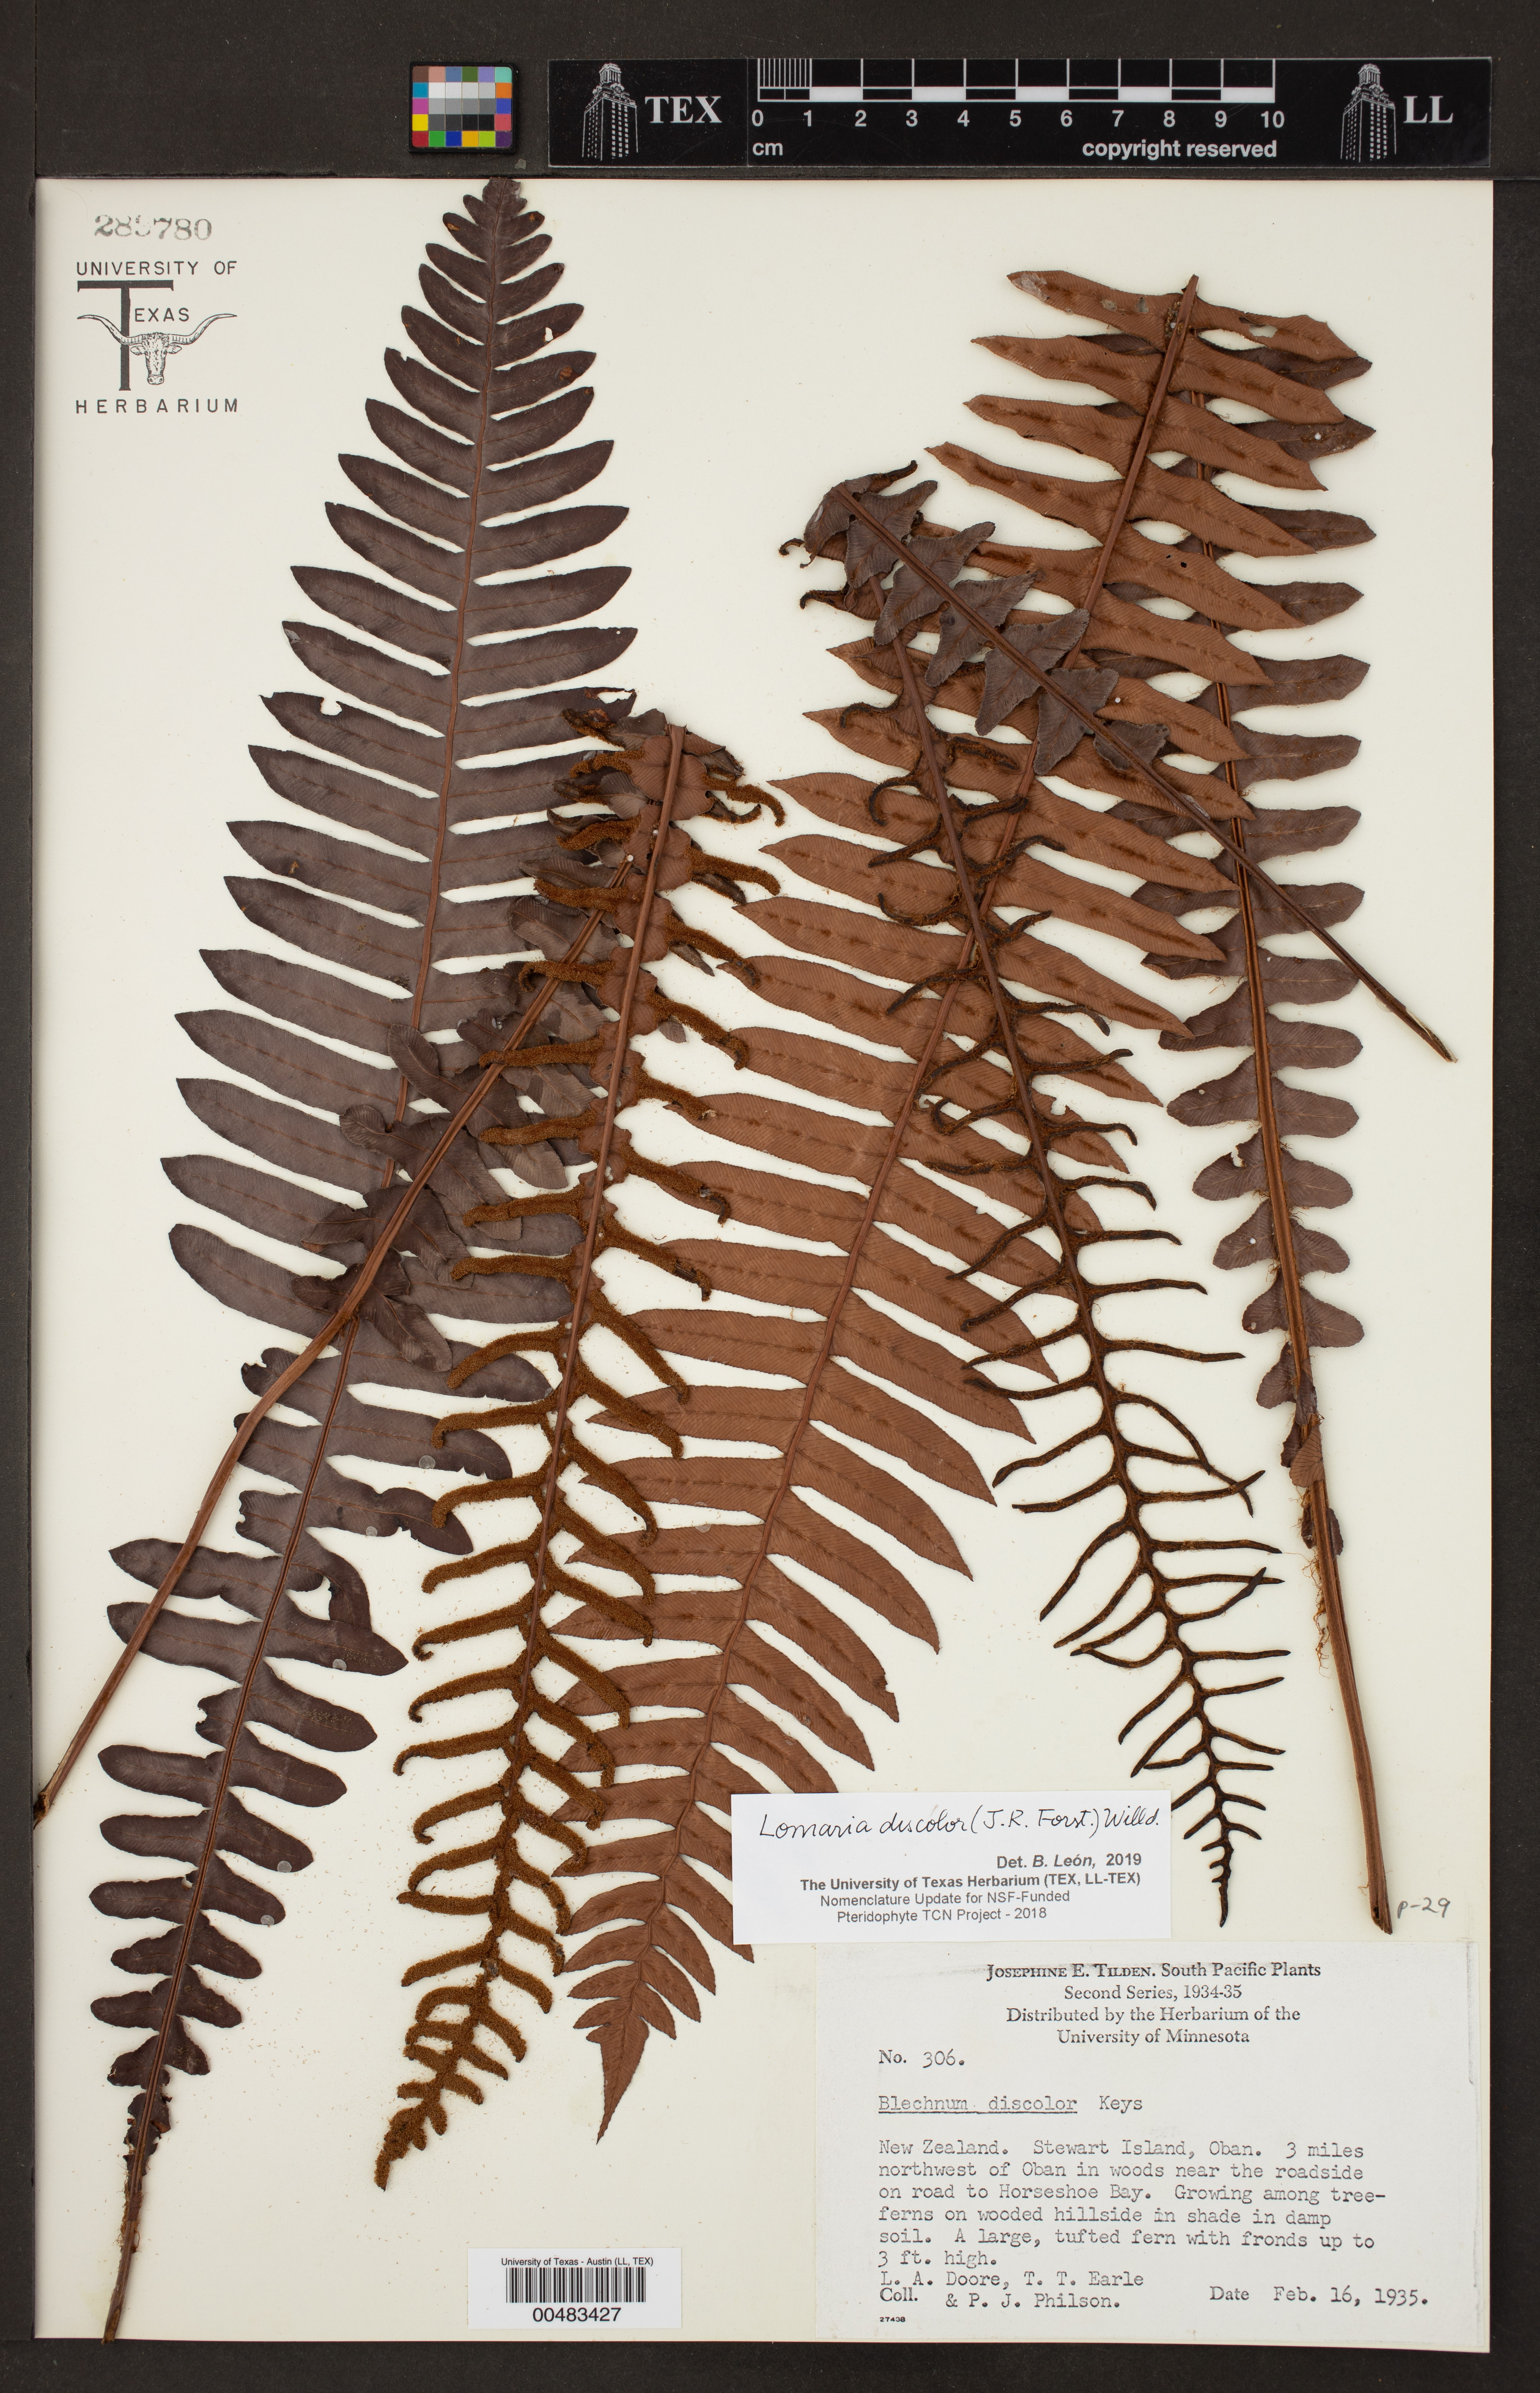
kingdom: Plantae
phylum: Tracheophyta
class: Polypodiopsida
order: Polypodiales
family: Blechnaceae
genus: Lomaria
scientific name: Lomaria discolor
